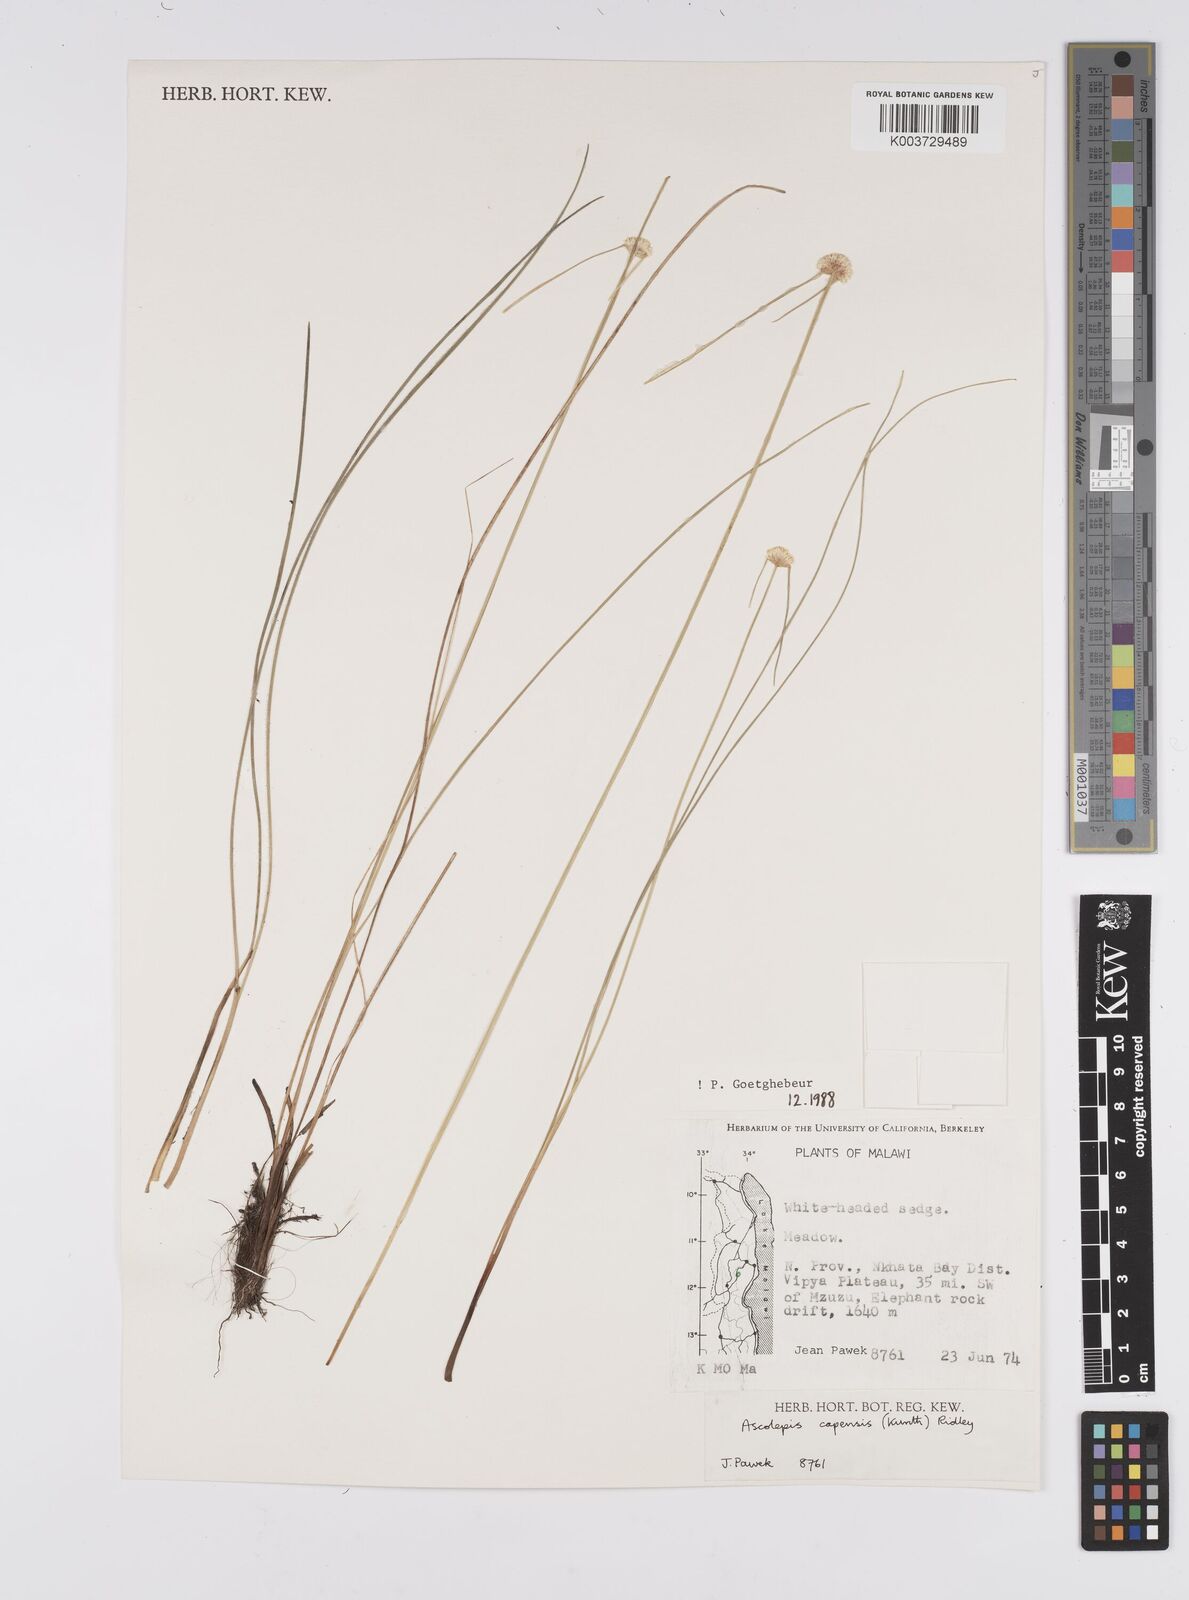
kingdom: Plantae
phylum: Tracheophyta
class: Liliopsida
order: Poales
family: Cyperaceae
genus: Cyperus
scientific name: Cyperus
